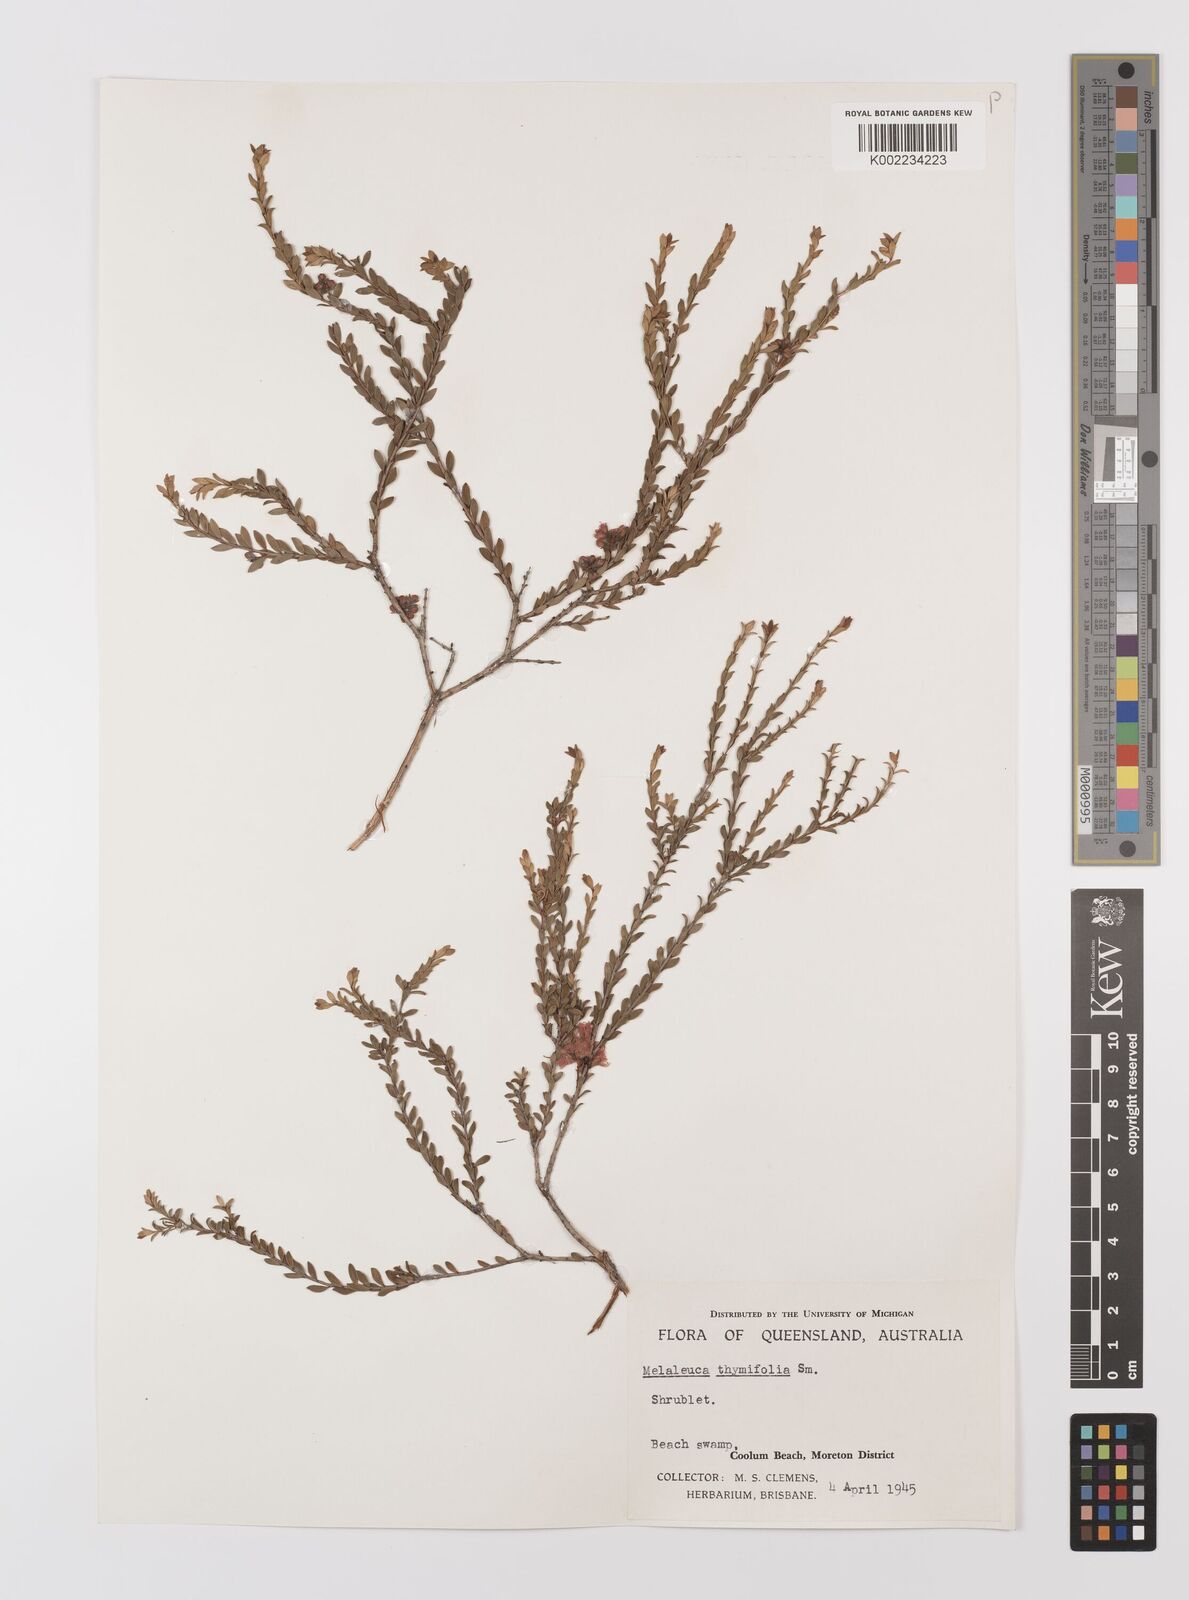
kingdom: Plantae
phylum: Tracheophyta
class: Magnoliopsida
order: Myrtales
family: Myrtaceae
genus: Melaleuca
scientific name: Melaleuca thymifolia
